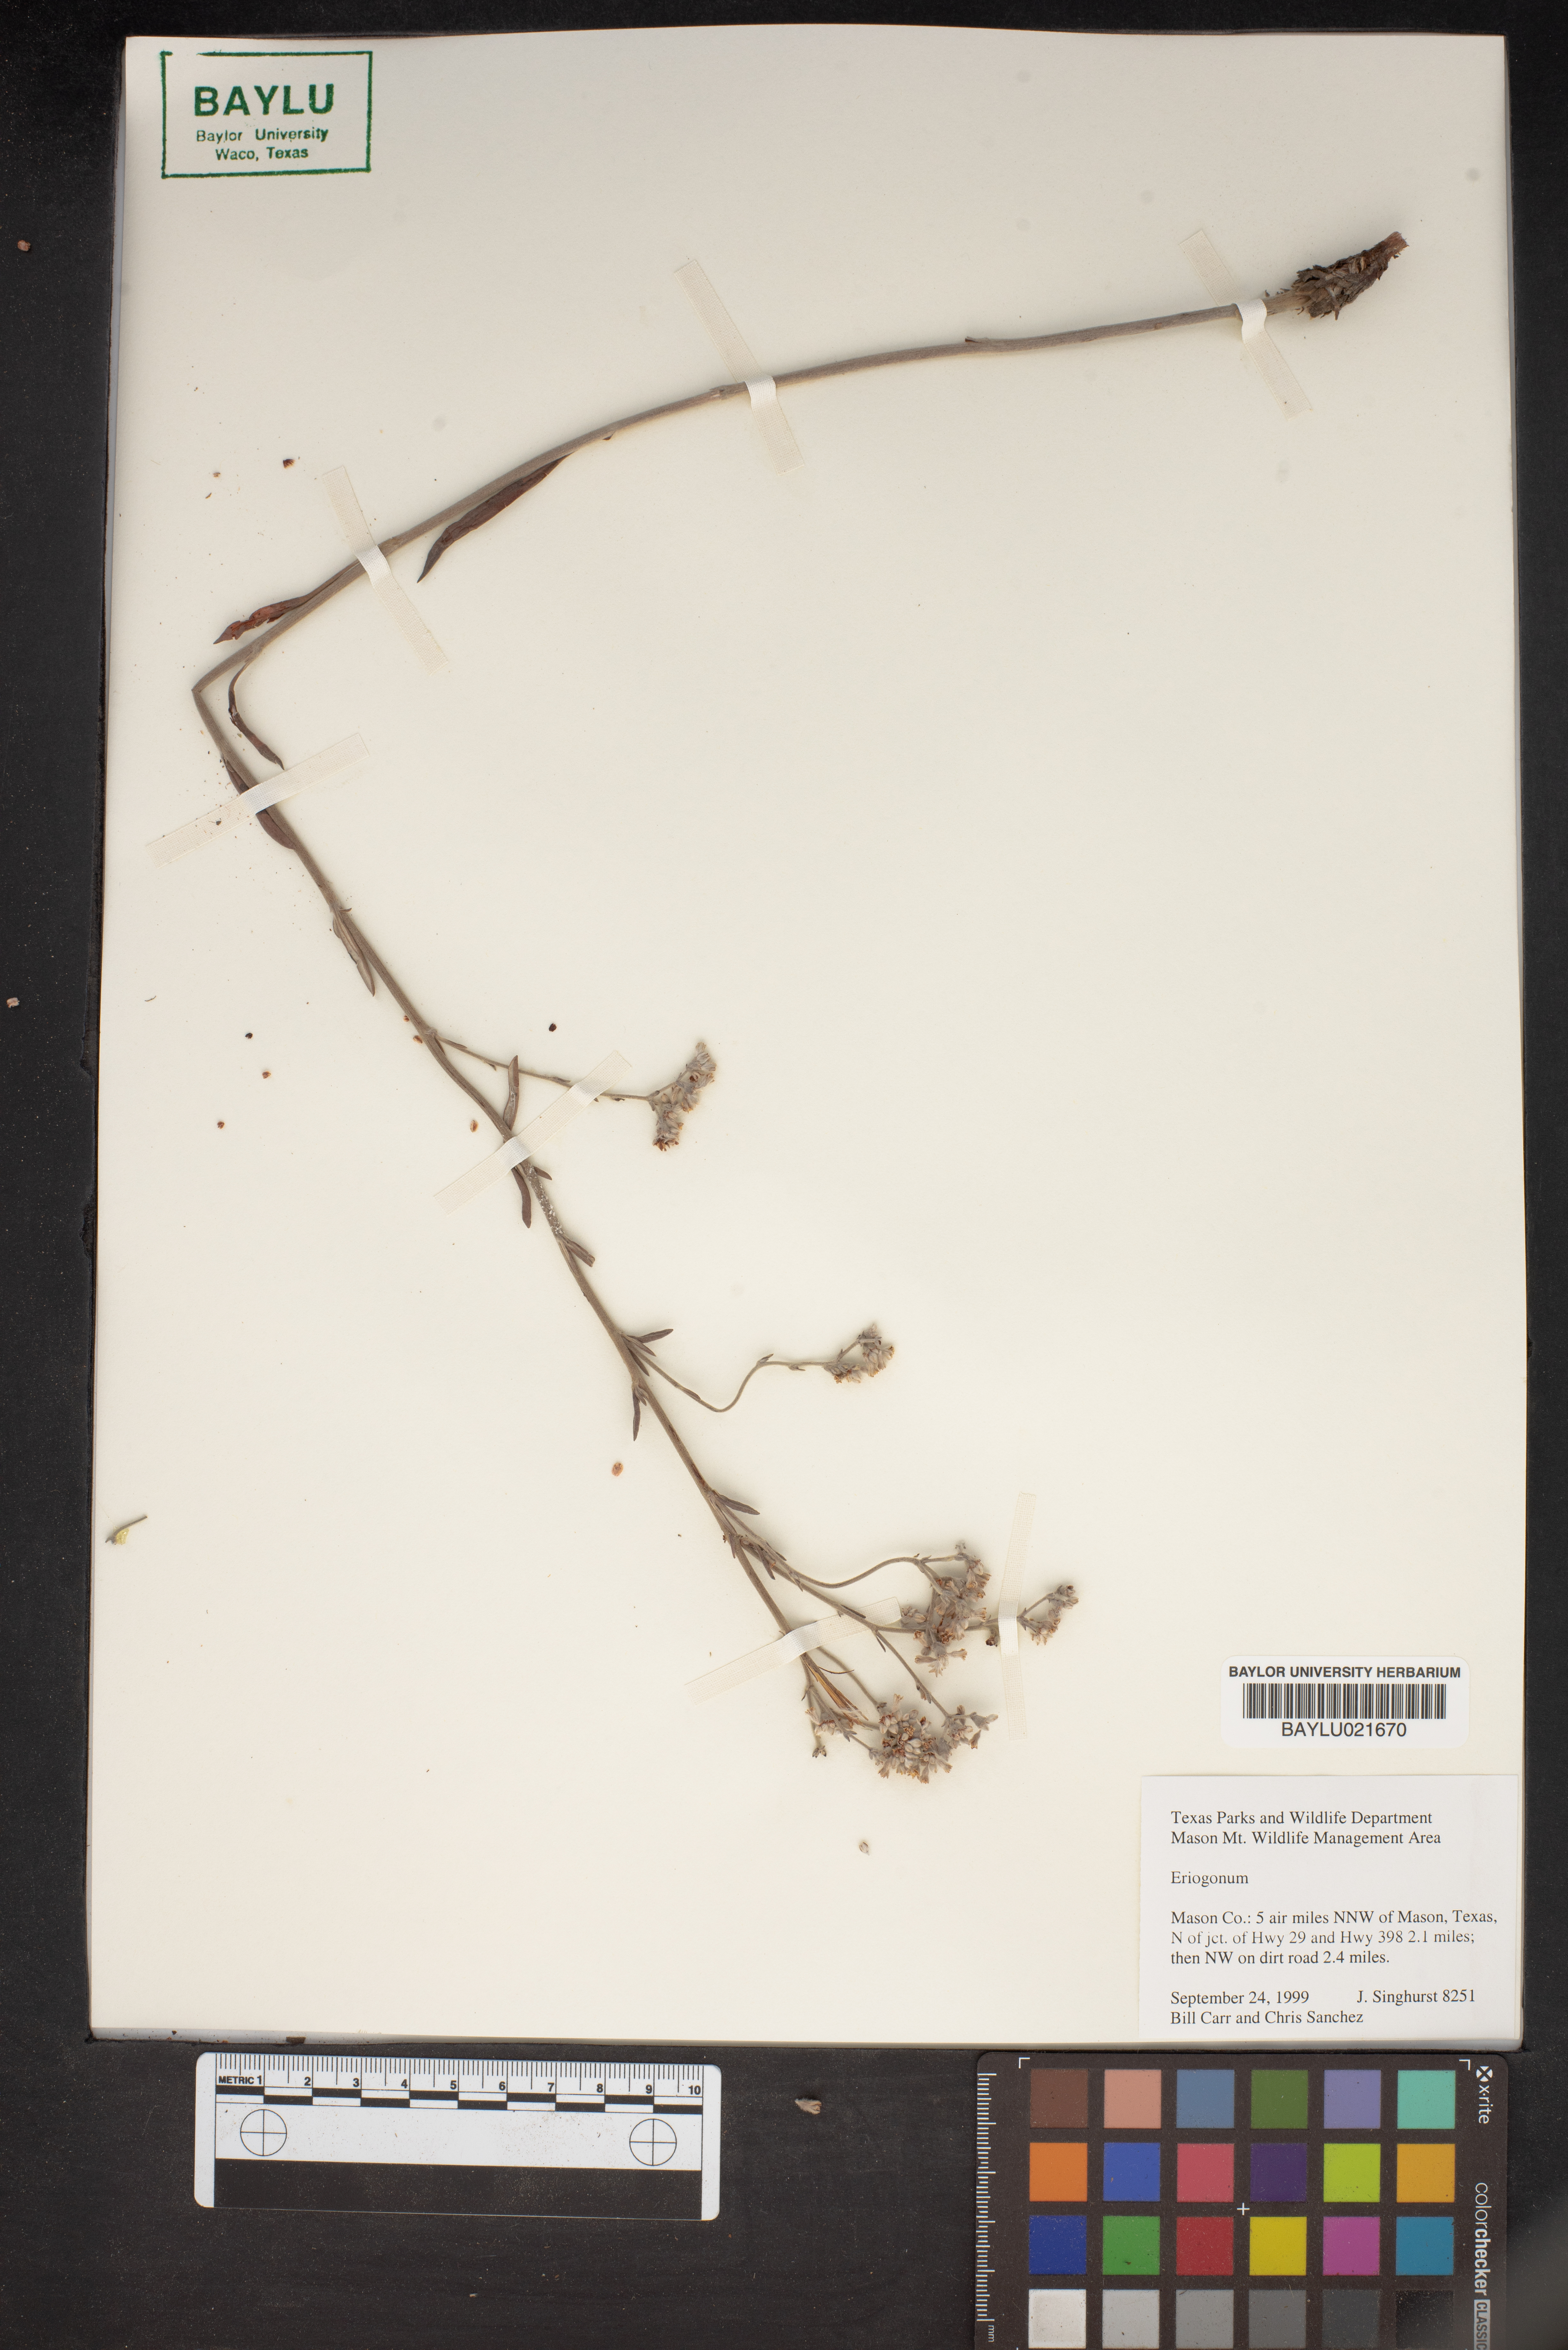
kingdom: Plantae
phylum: Tracheophyta
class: Magnoliopsida
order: Caryophyllales
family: Polygonaceae
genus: Eriogonum
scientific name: Eriogonum
